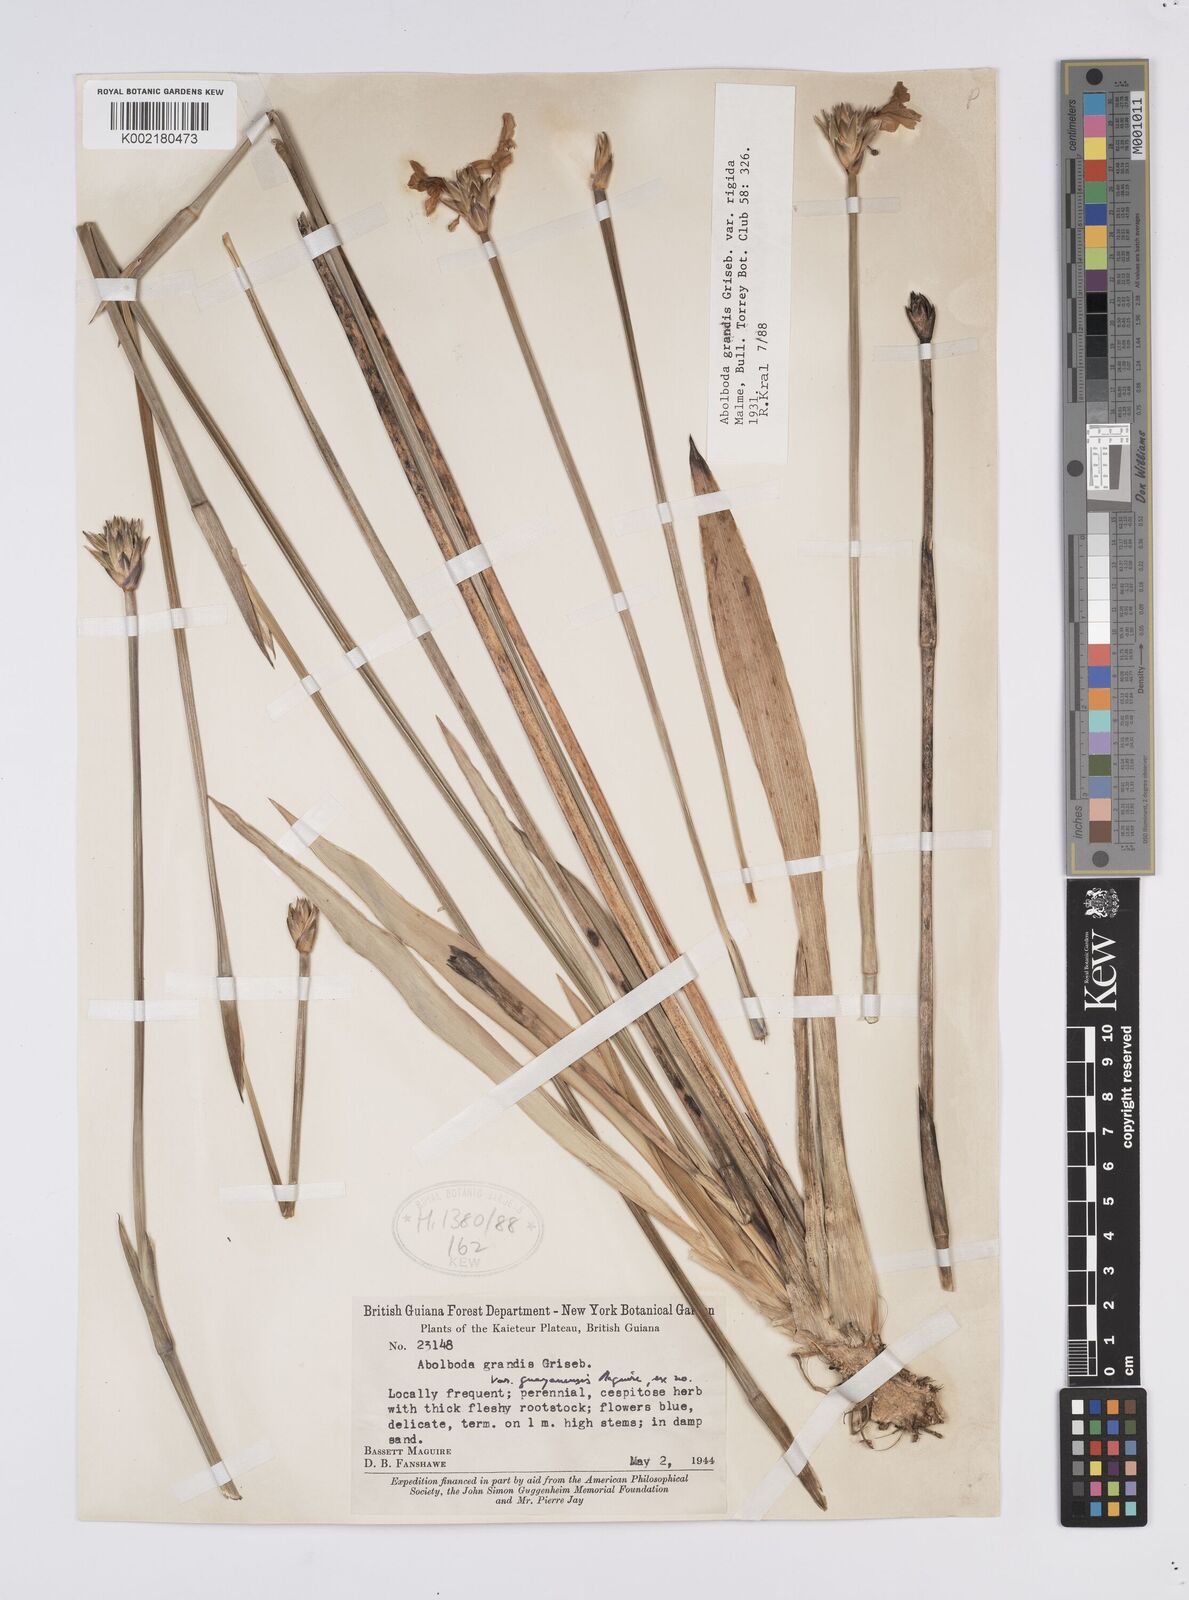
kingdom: Plantae
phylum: Tracheophyta
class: Liliopsida
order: Poales
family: Xyridaceae
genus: Abolboda
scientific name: Abolboda grandis
